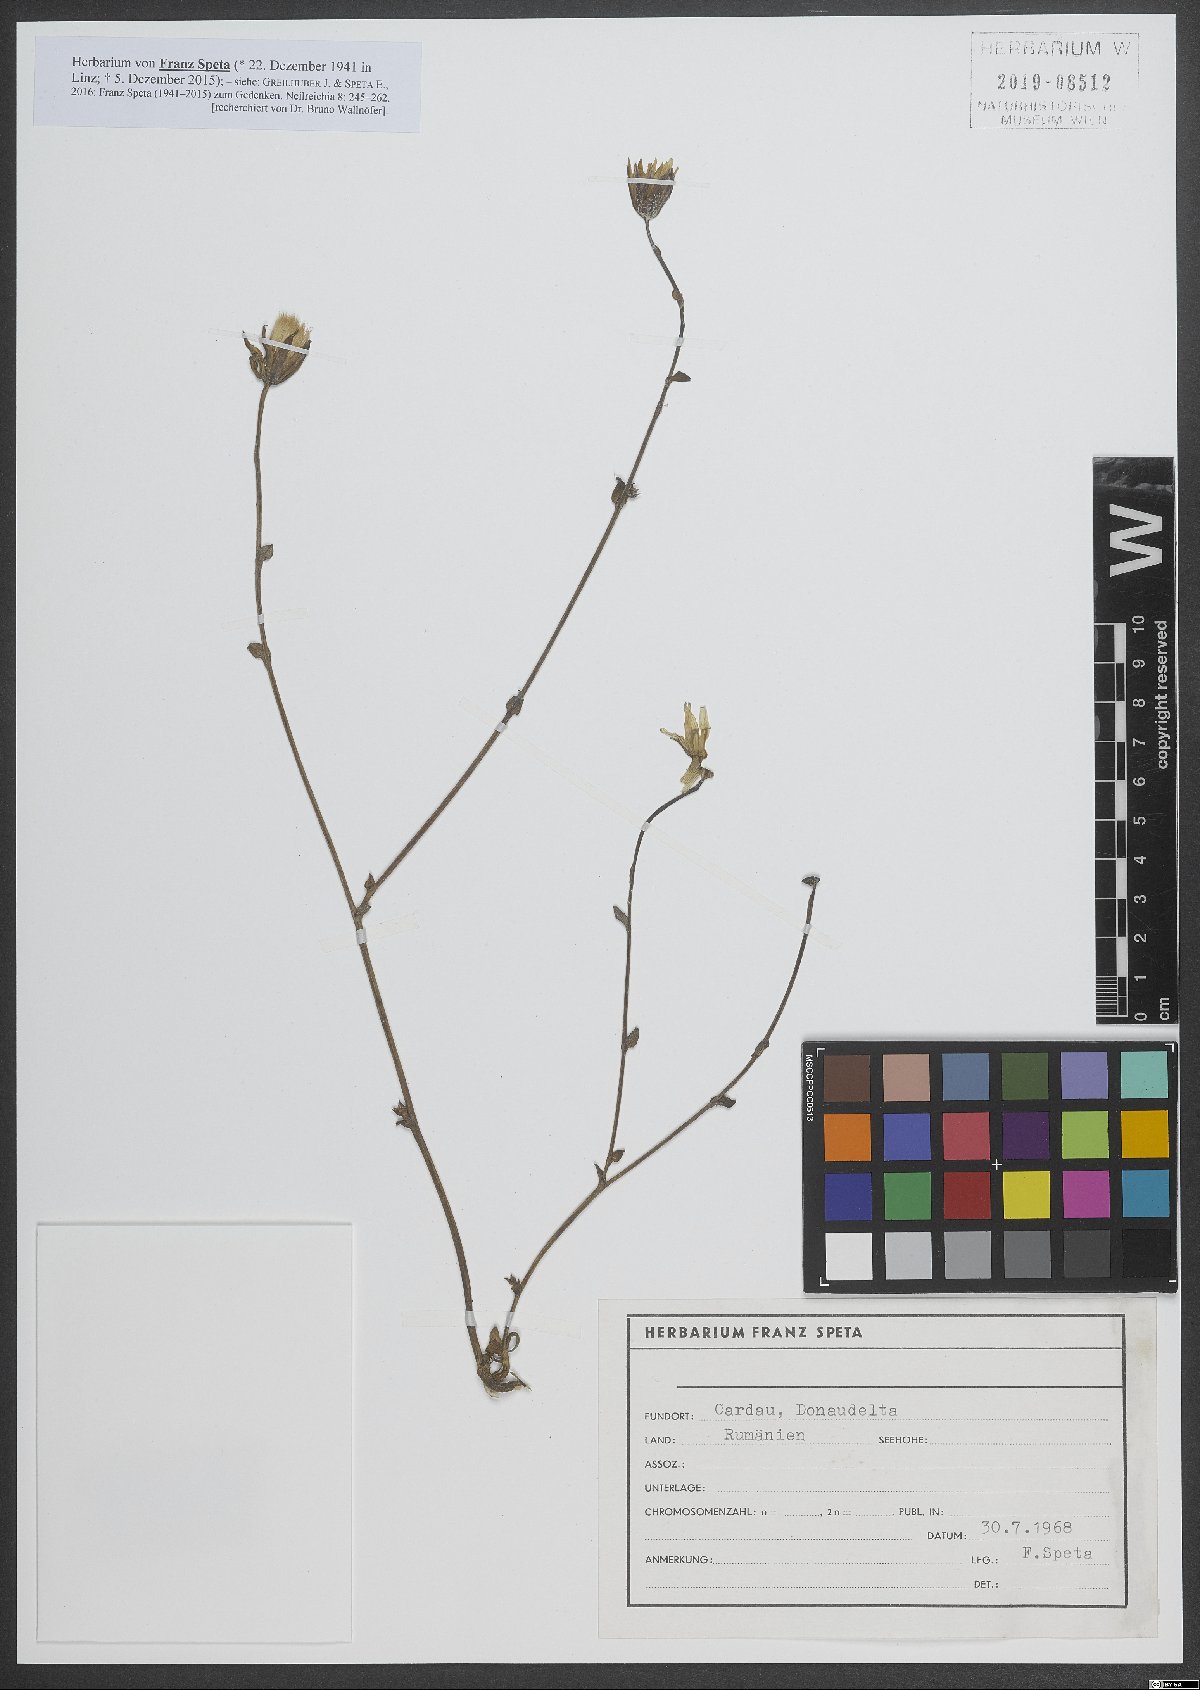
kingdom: Plantae
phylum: Tracheophyta
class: Magnoliopsida
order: Asterales
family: Asteraceae
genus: Tragopogon
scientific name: Tragopogon
